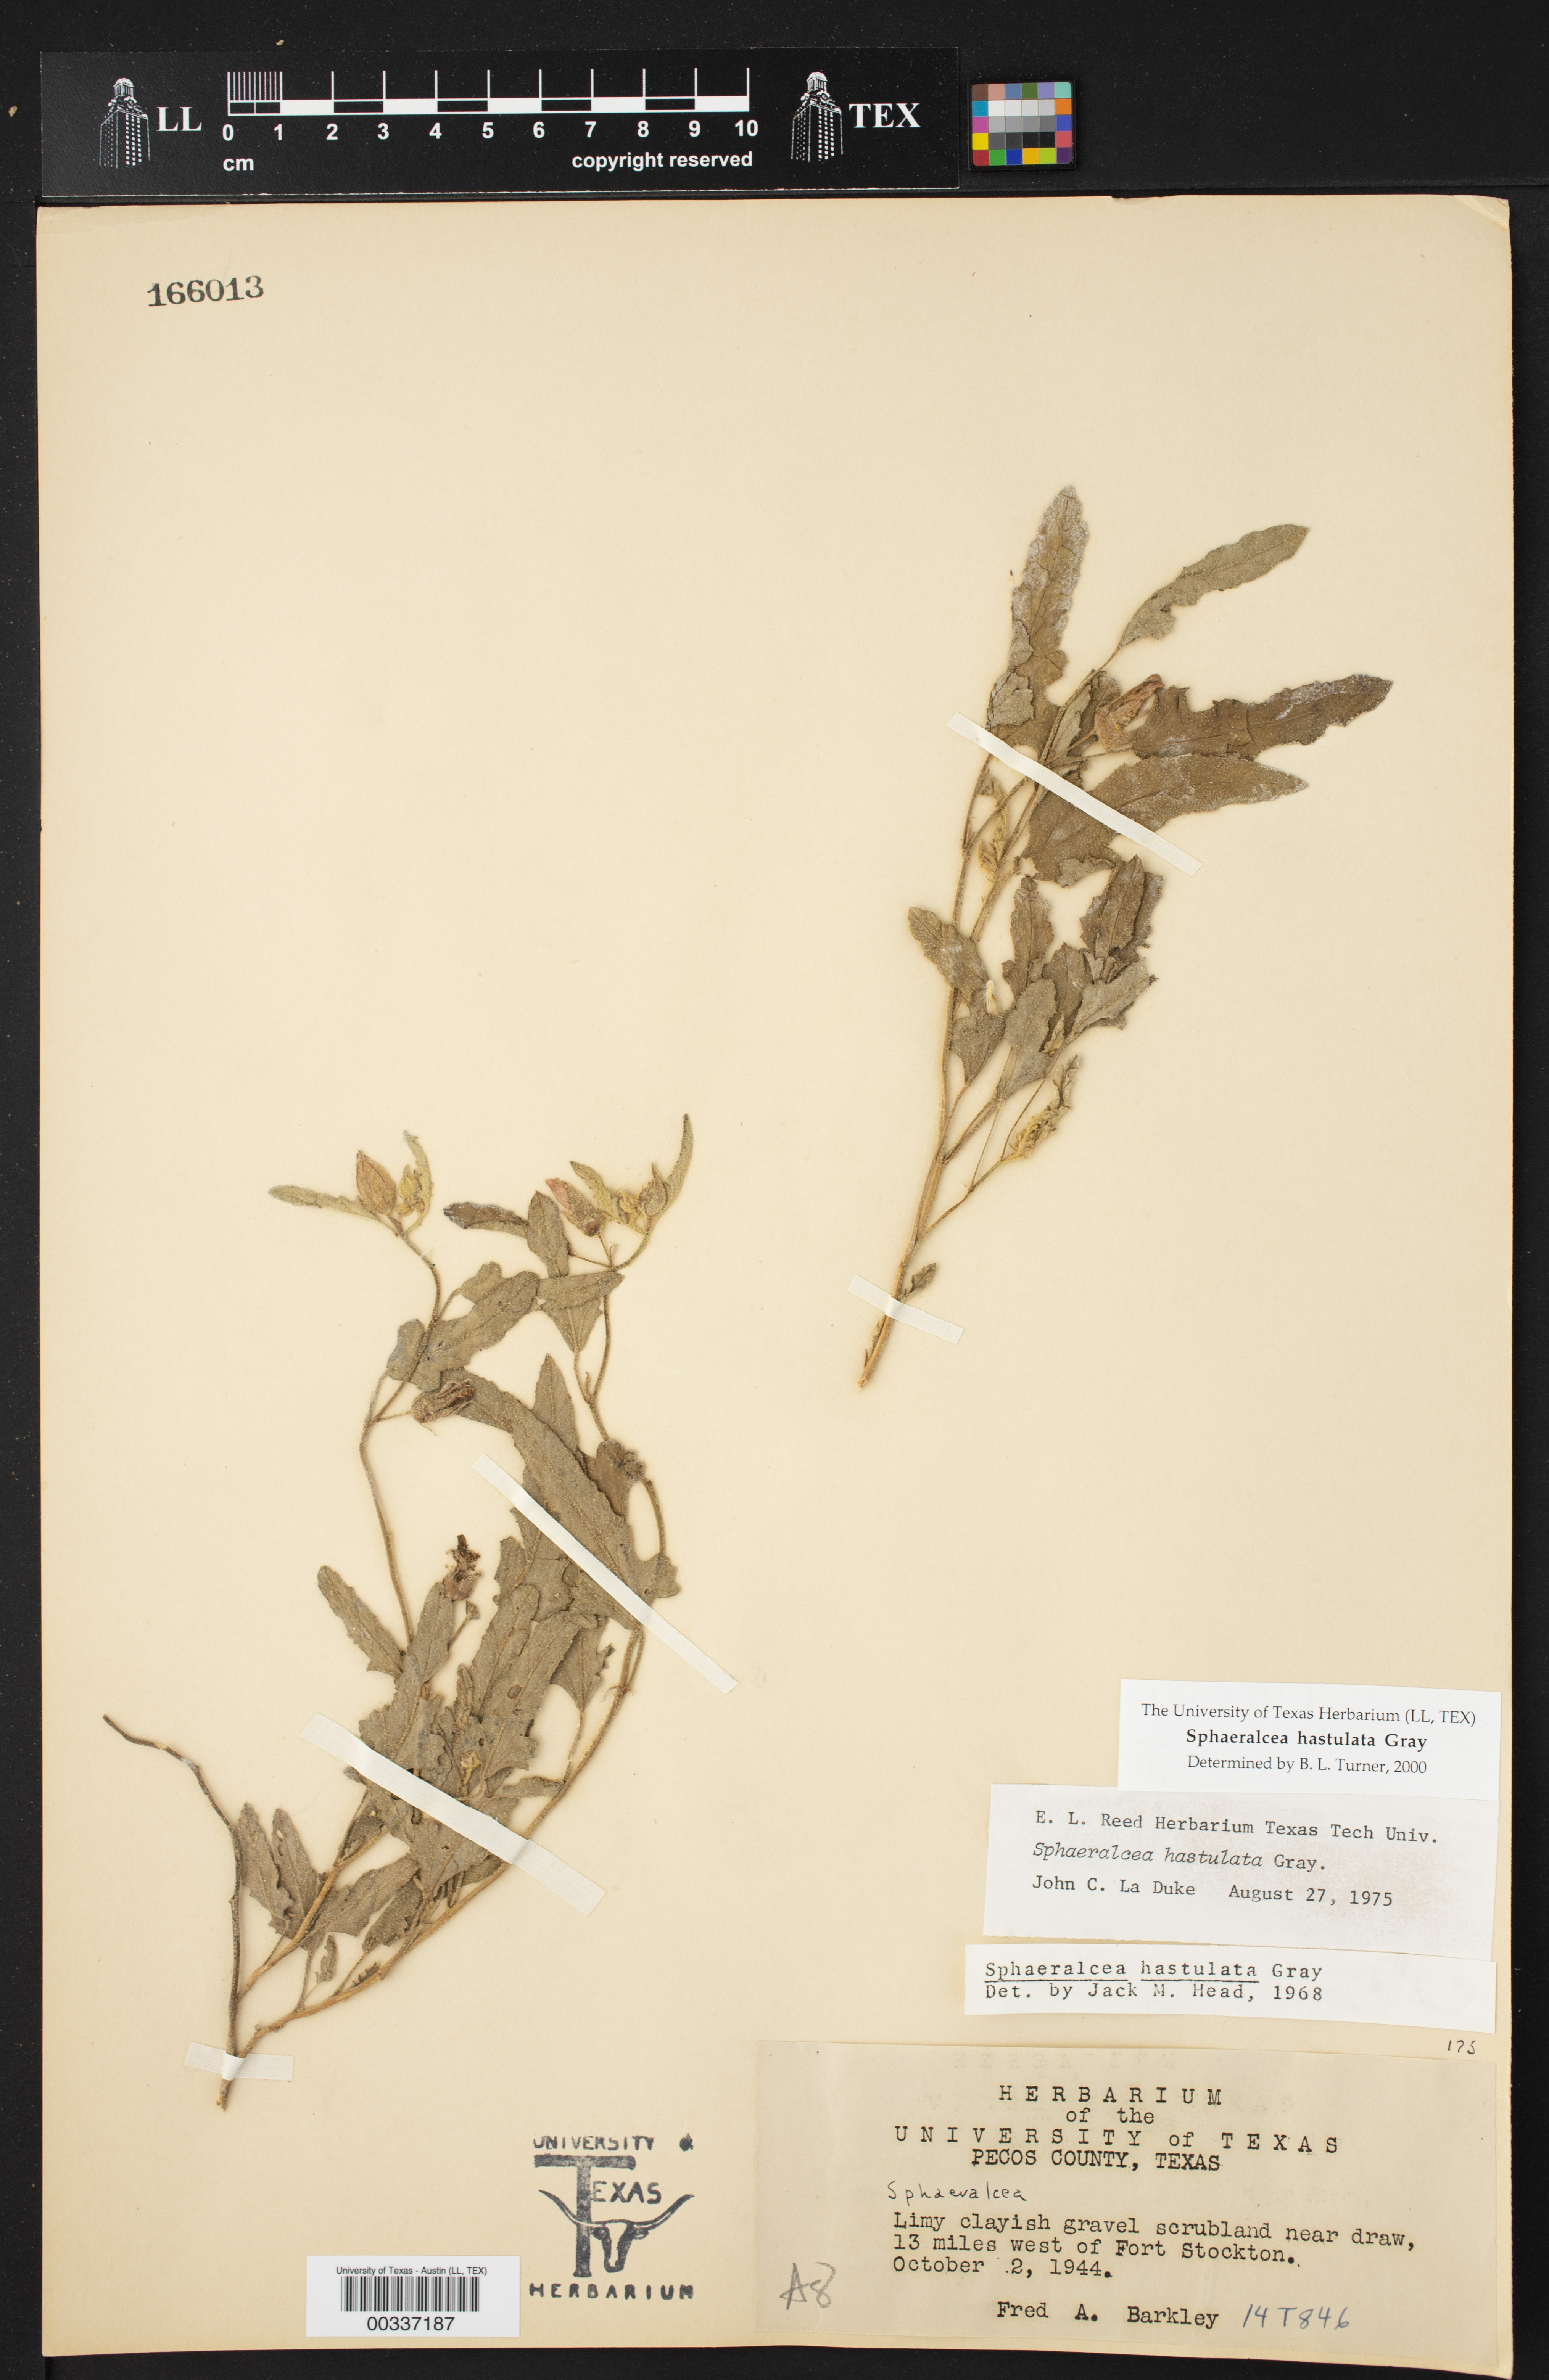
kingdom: Plantae
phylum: Tracheophyta
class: Magnoliopsida
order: Malvales
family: Malvaceae
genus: Sphaeralcea
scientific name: Sphaeralcea hastulata
